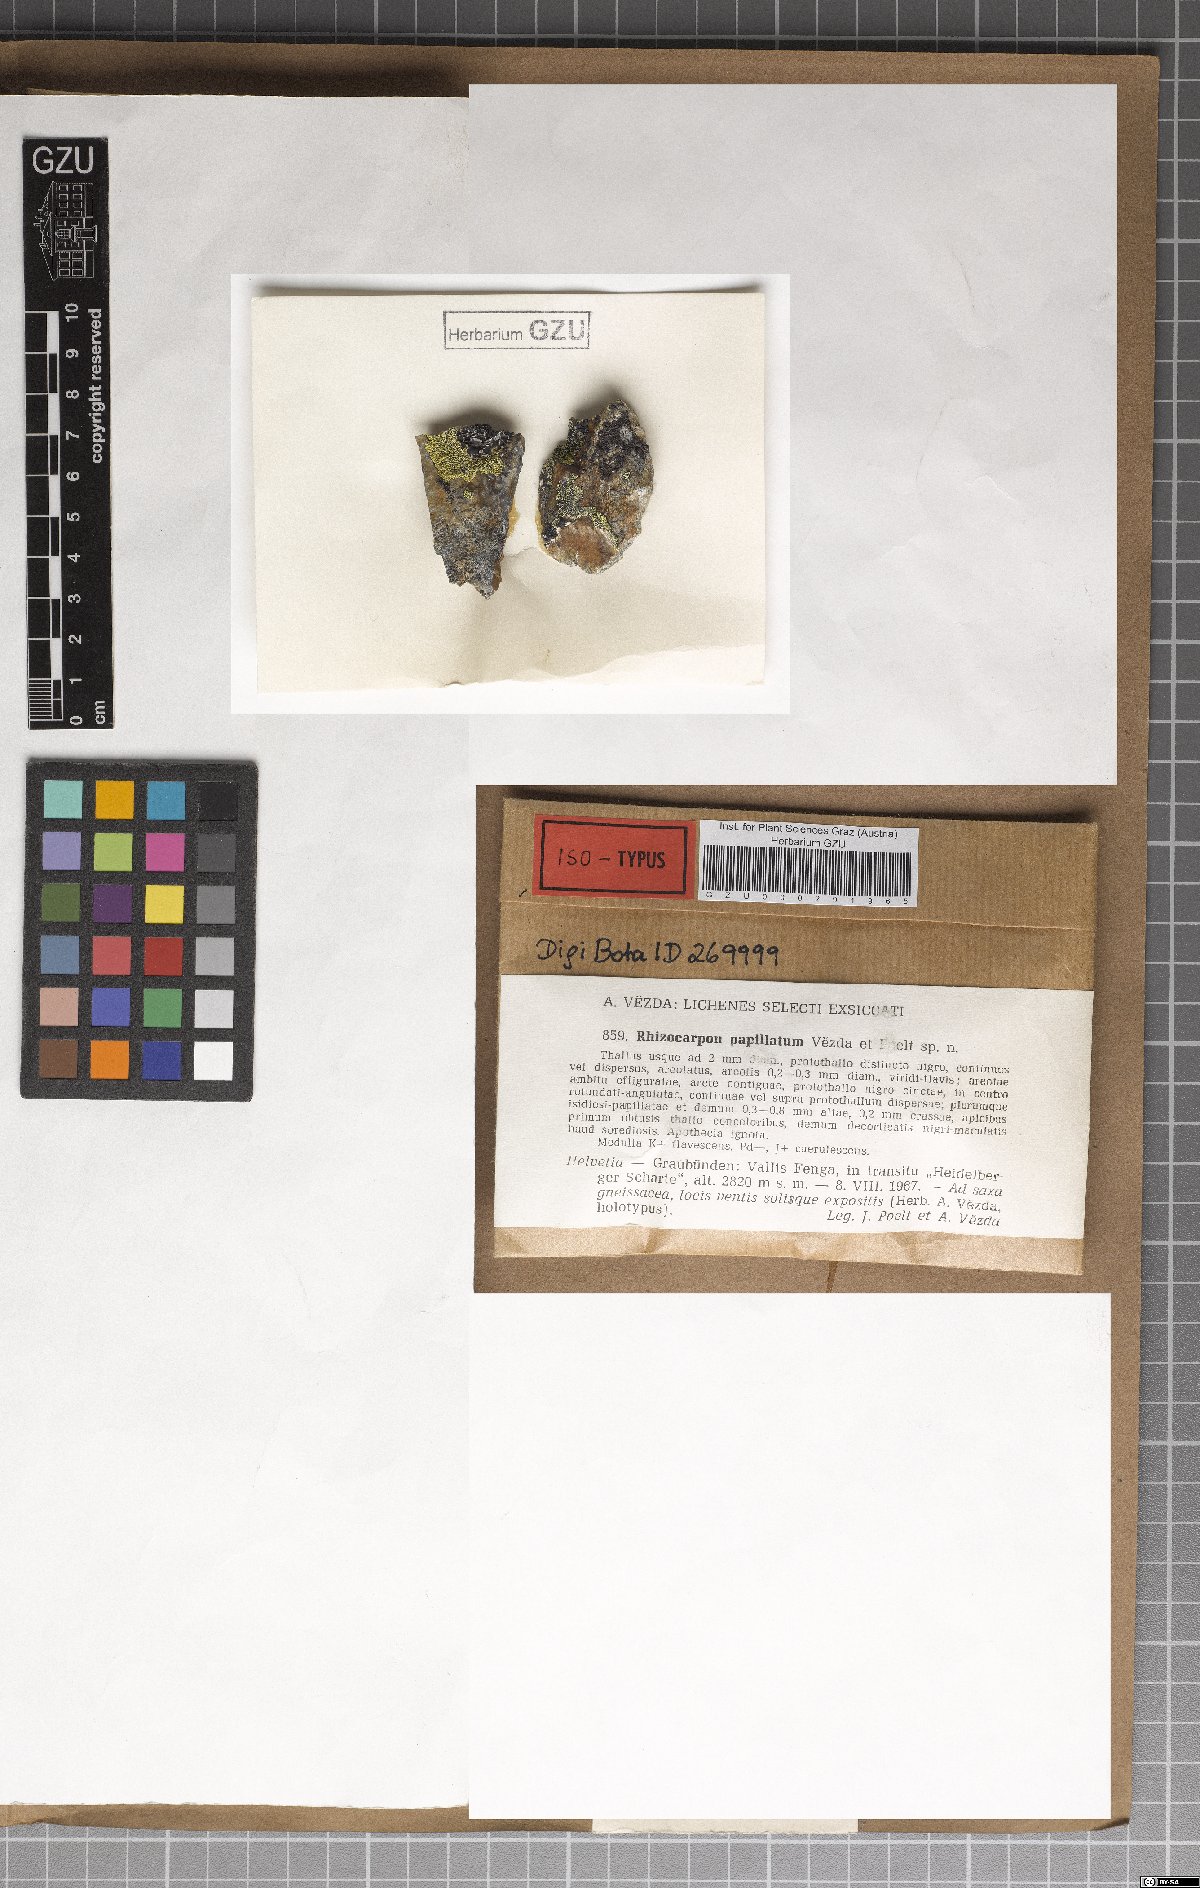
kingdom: Fungi
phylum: Ascomycota
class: Lecanoromycetes
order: Rhizocarpales
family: Rhizocarpaceae
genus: Rhizocarpon
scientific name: Rhizocarpon papillatum
